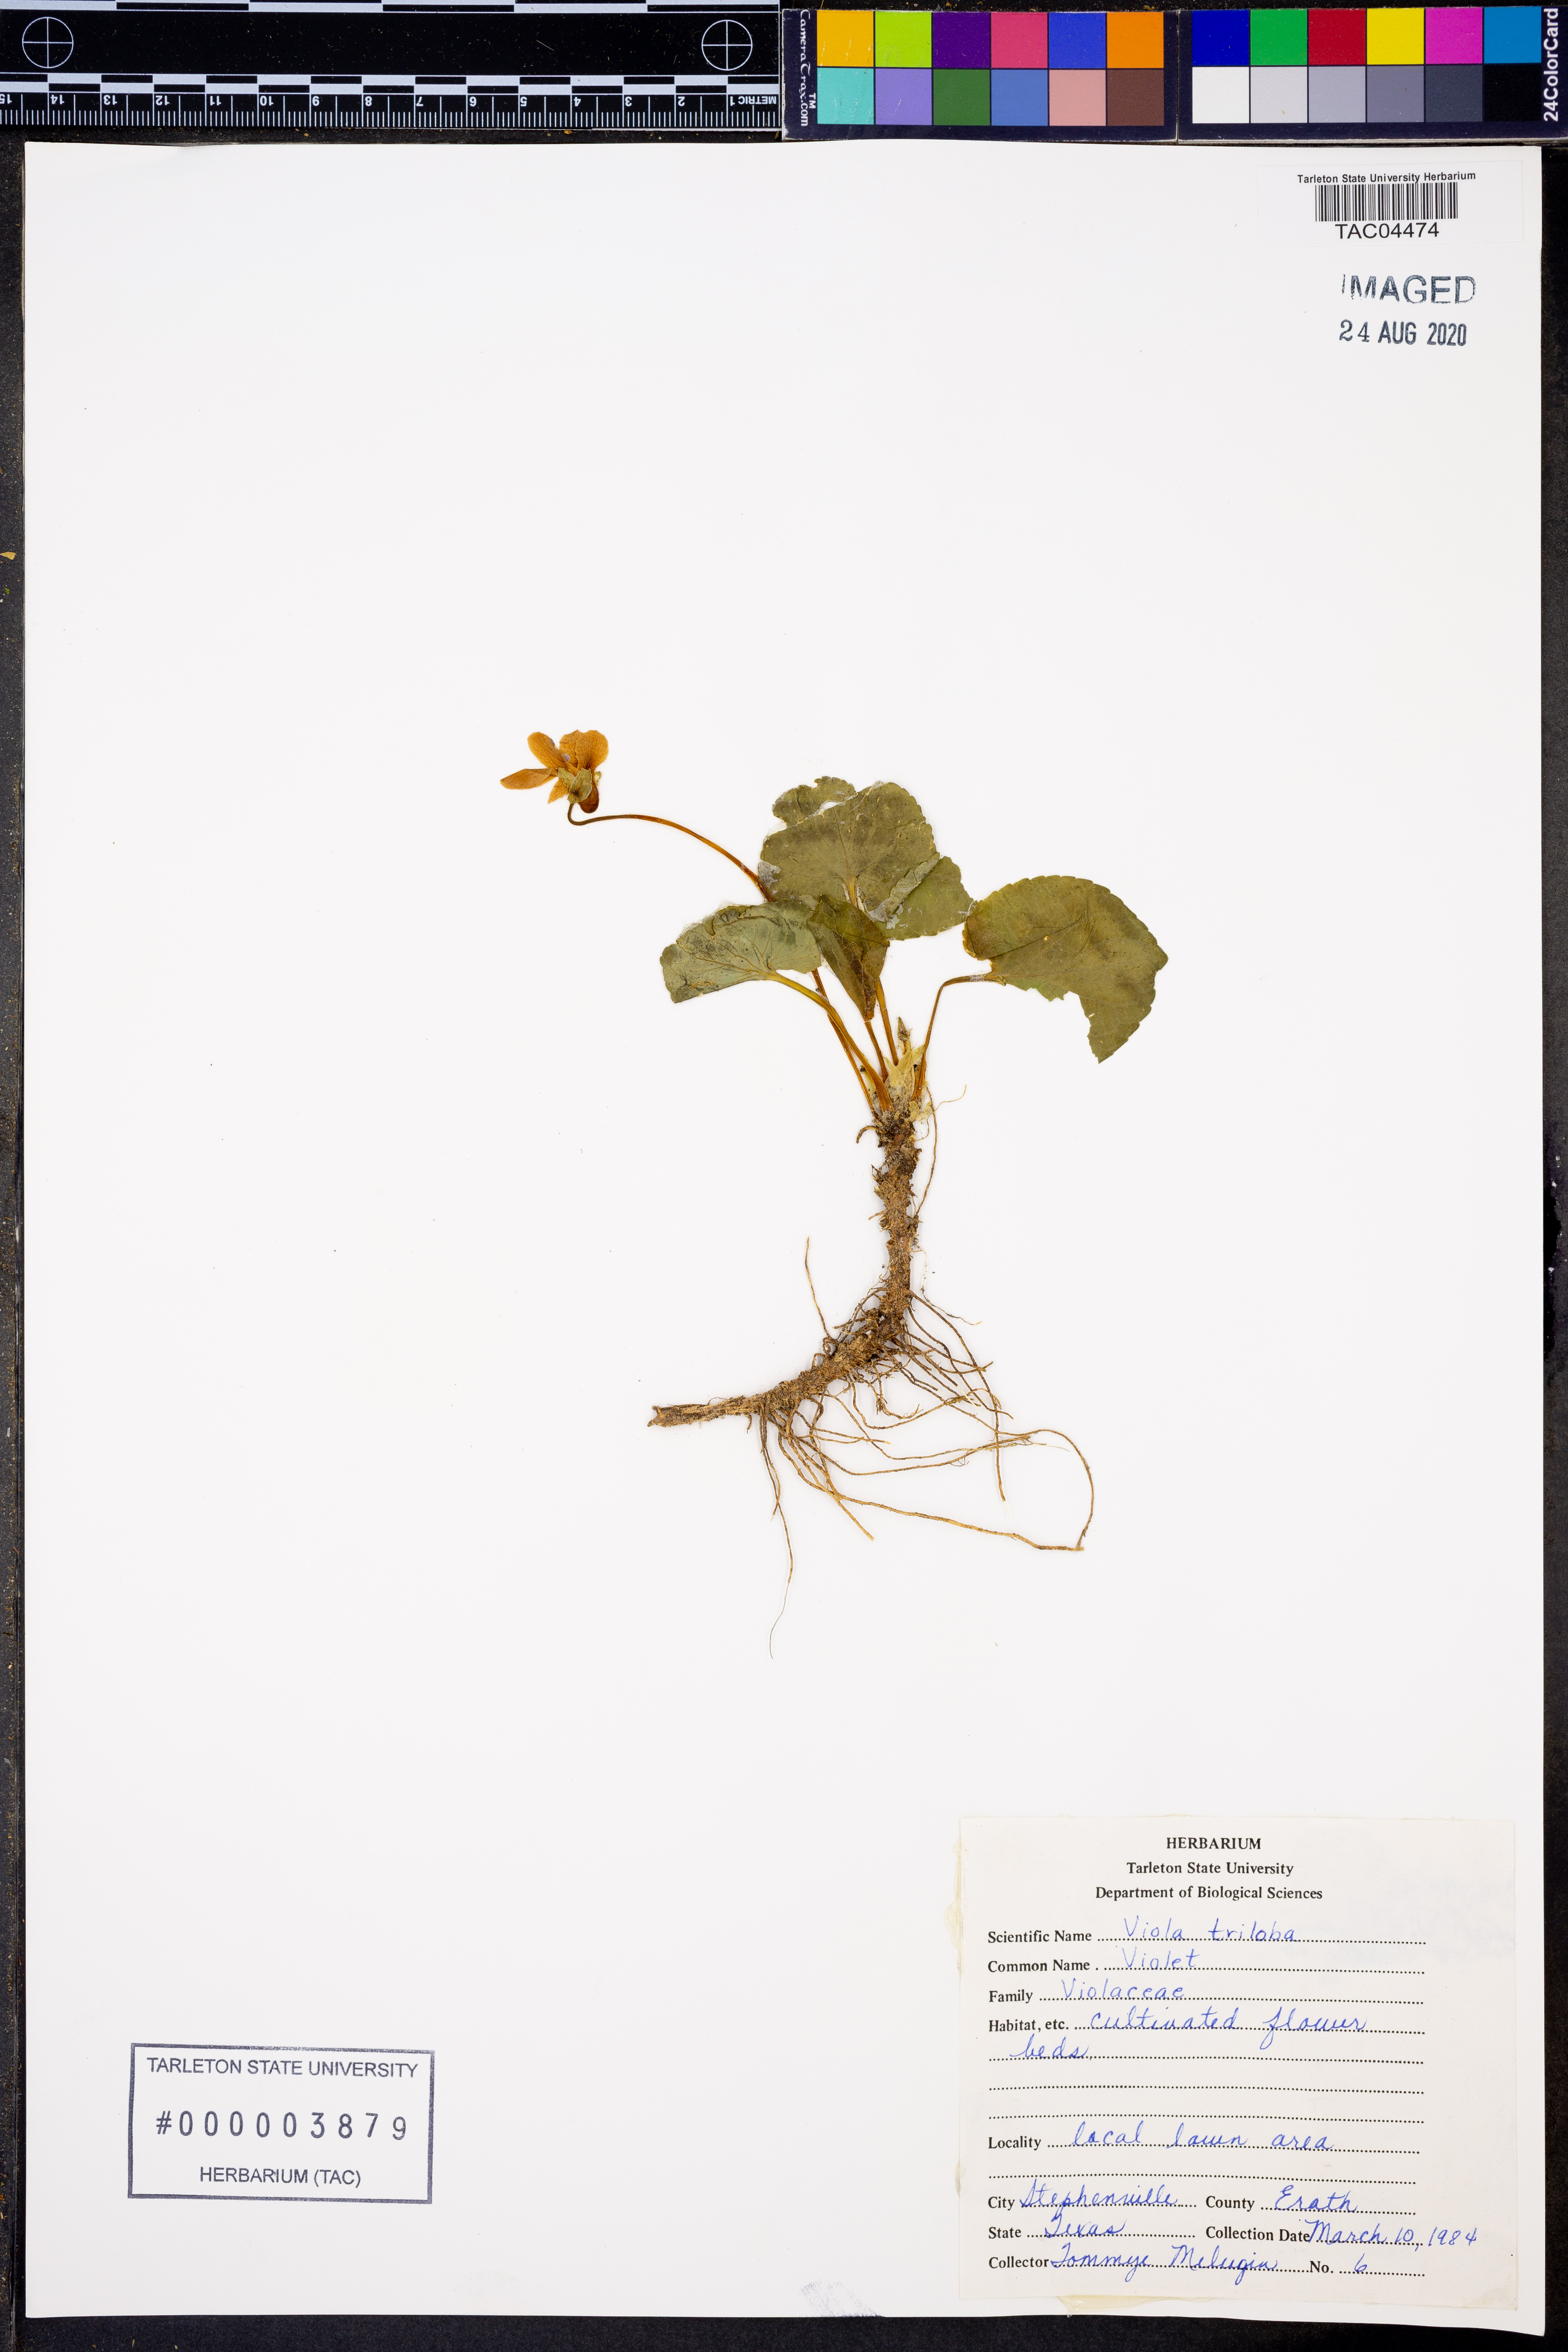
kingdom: Plantae
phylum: Tracheophyta
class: Magnoliopsida
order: Malpighiales
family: Violaceae
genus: Viola
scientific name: Viola palmata
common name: Early blue violet
